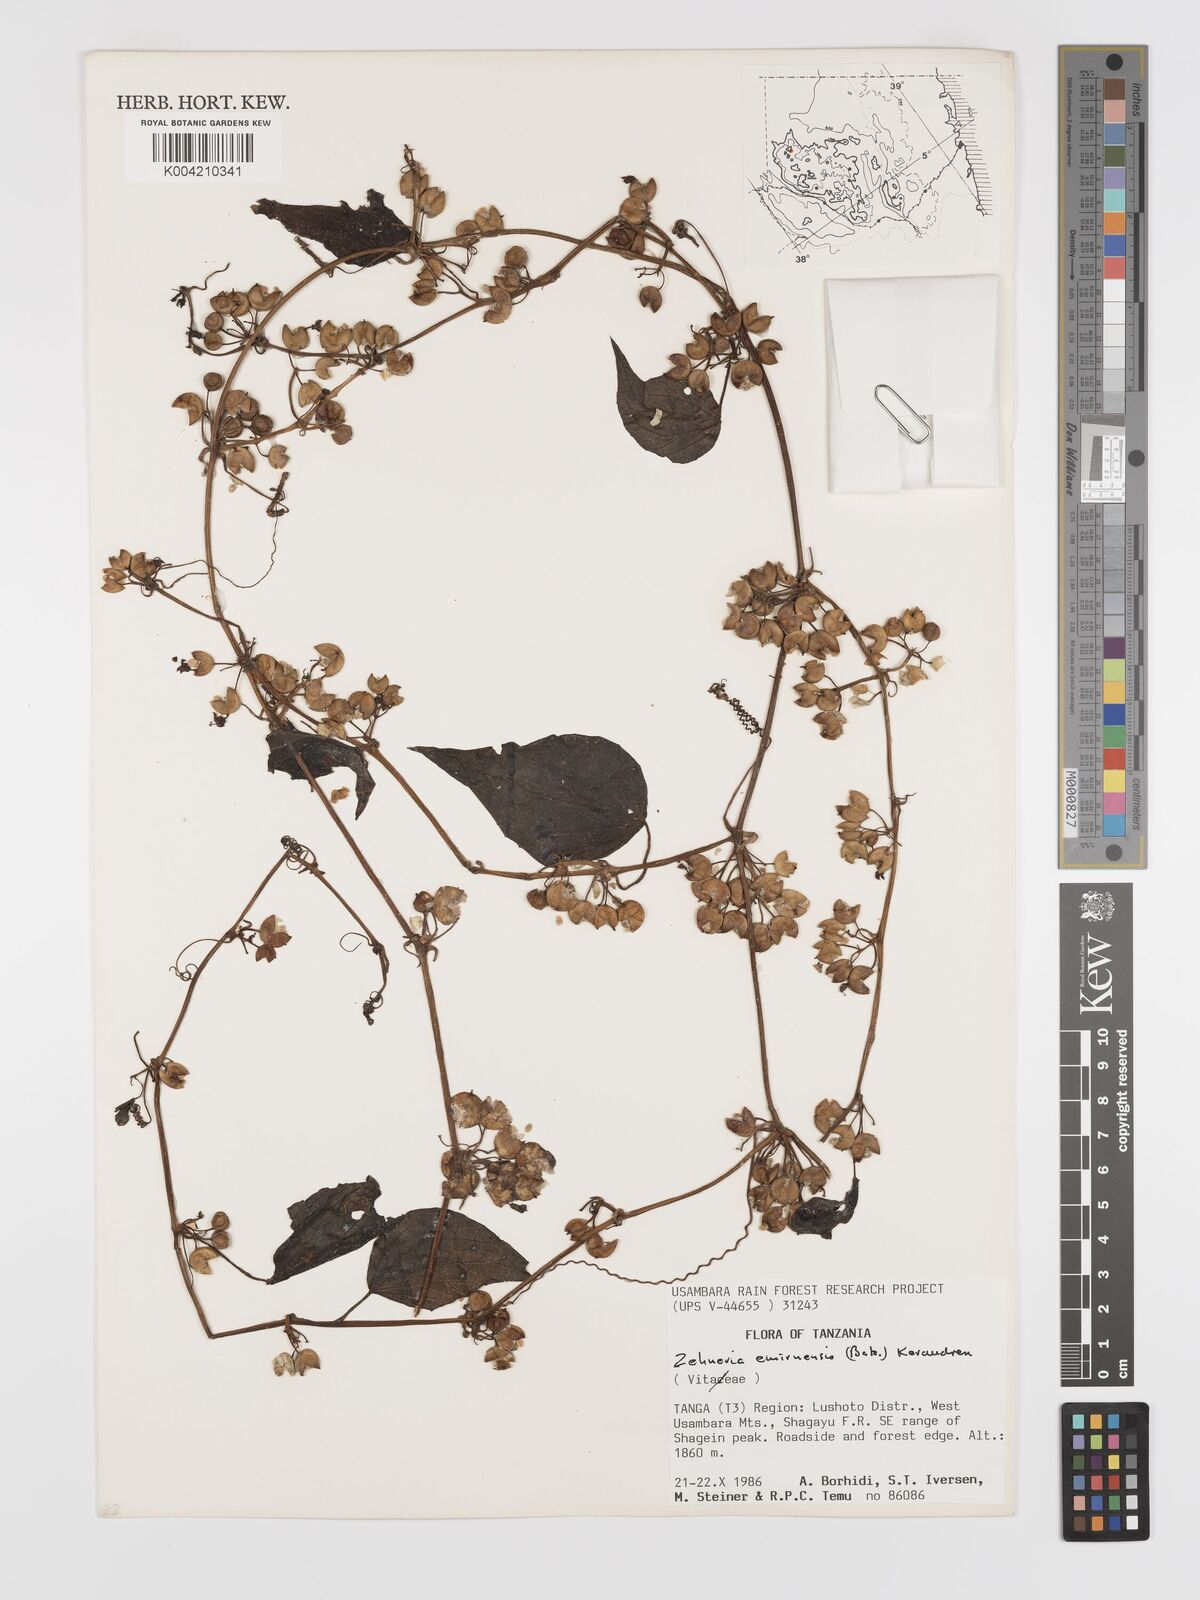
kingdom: Plantae
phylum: Tracheophyta
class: Magnoliopsida
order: Cucurbitales
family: Cucurbitaceae
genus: Zehneria
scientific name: Zehneria emirnensis
